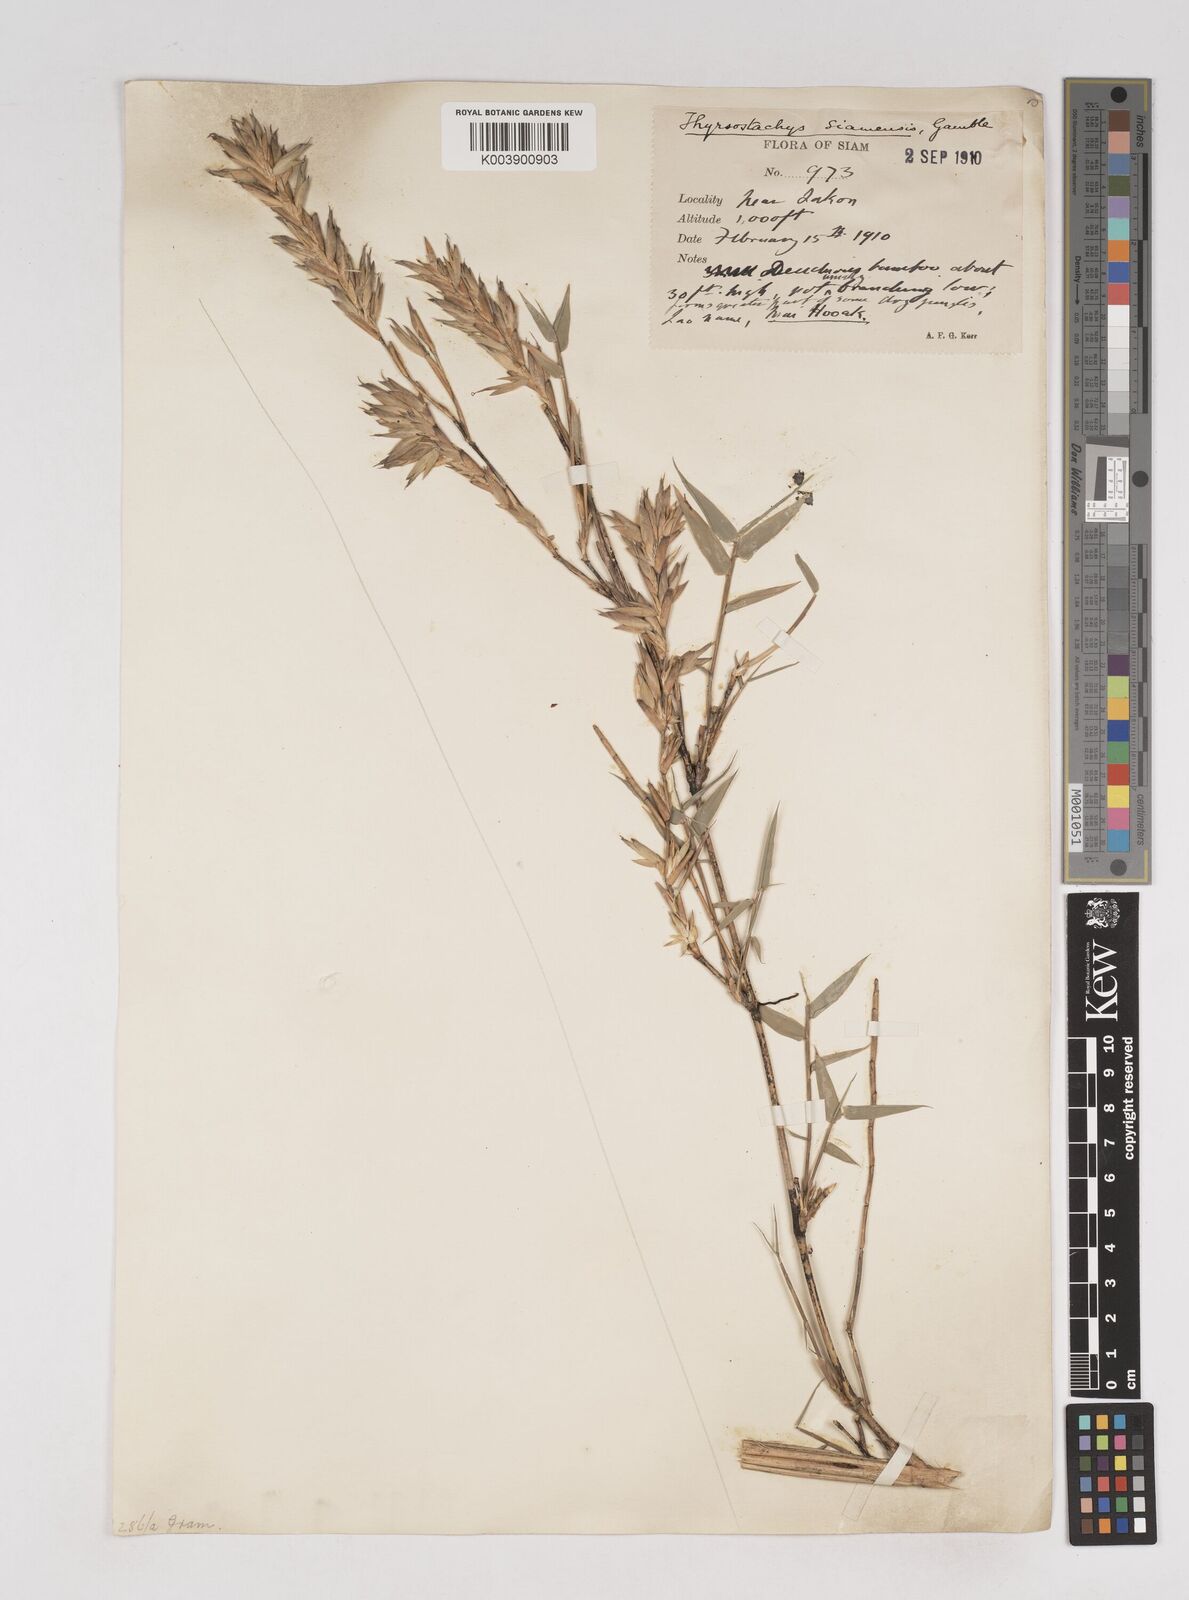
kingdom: Plantae
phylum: Tracheophyta
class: Liliopsida
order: Poales
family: Poaceae
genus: Thyrsostachys
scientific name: Thyrsostachys siamensis
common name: Thailand bamboo
